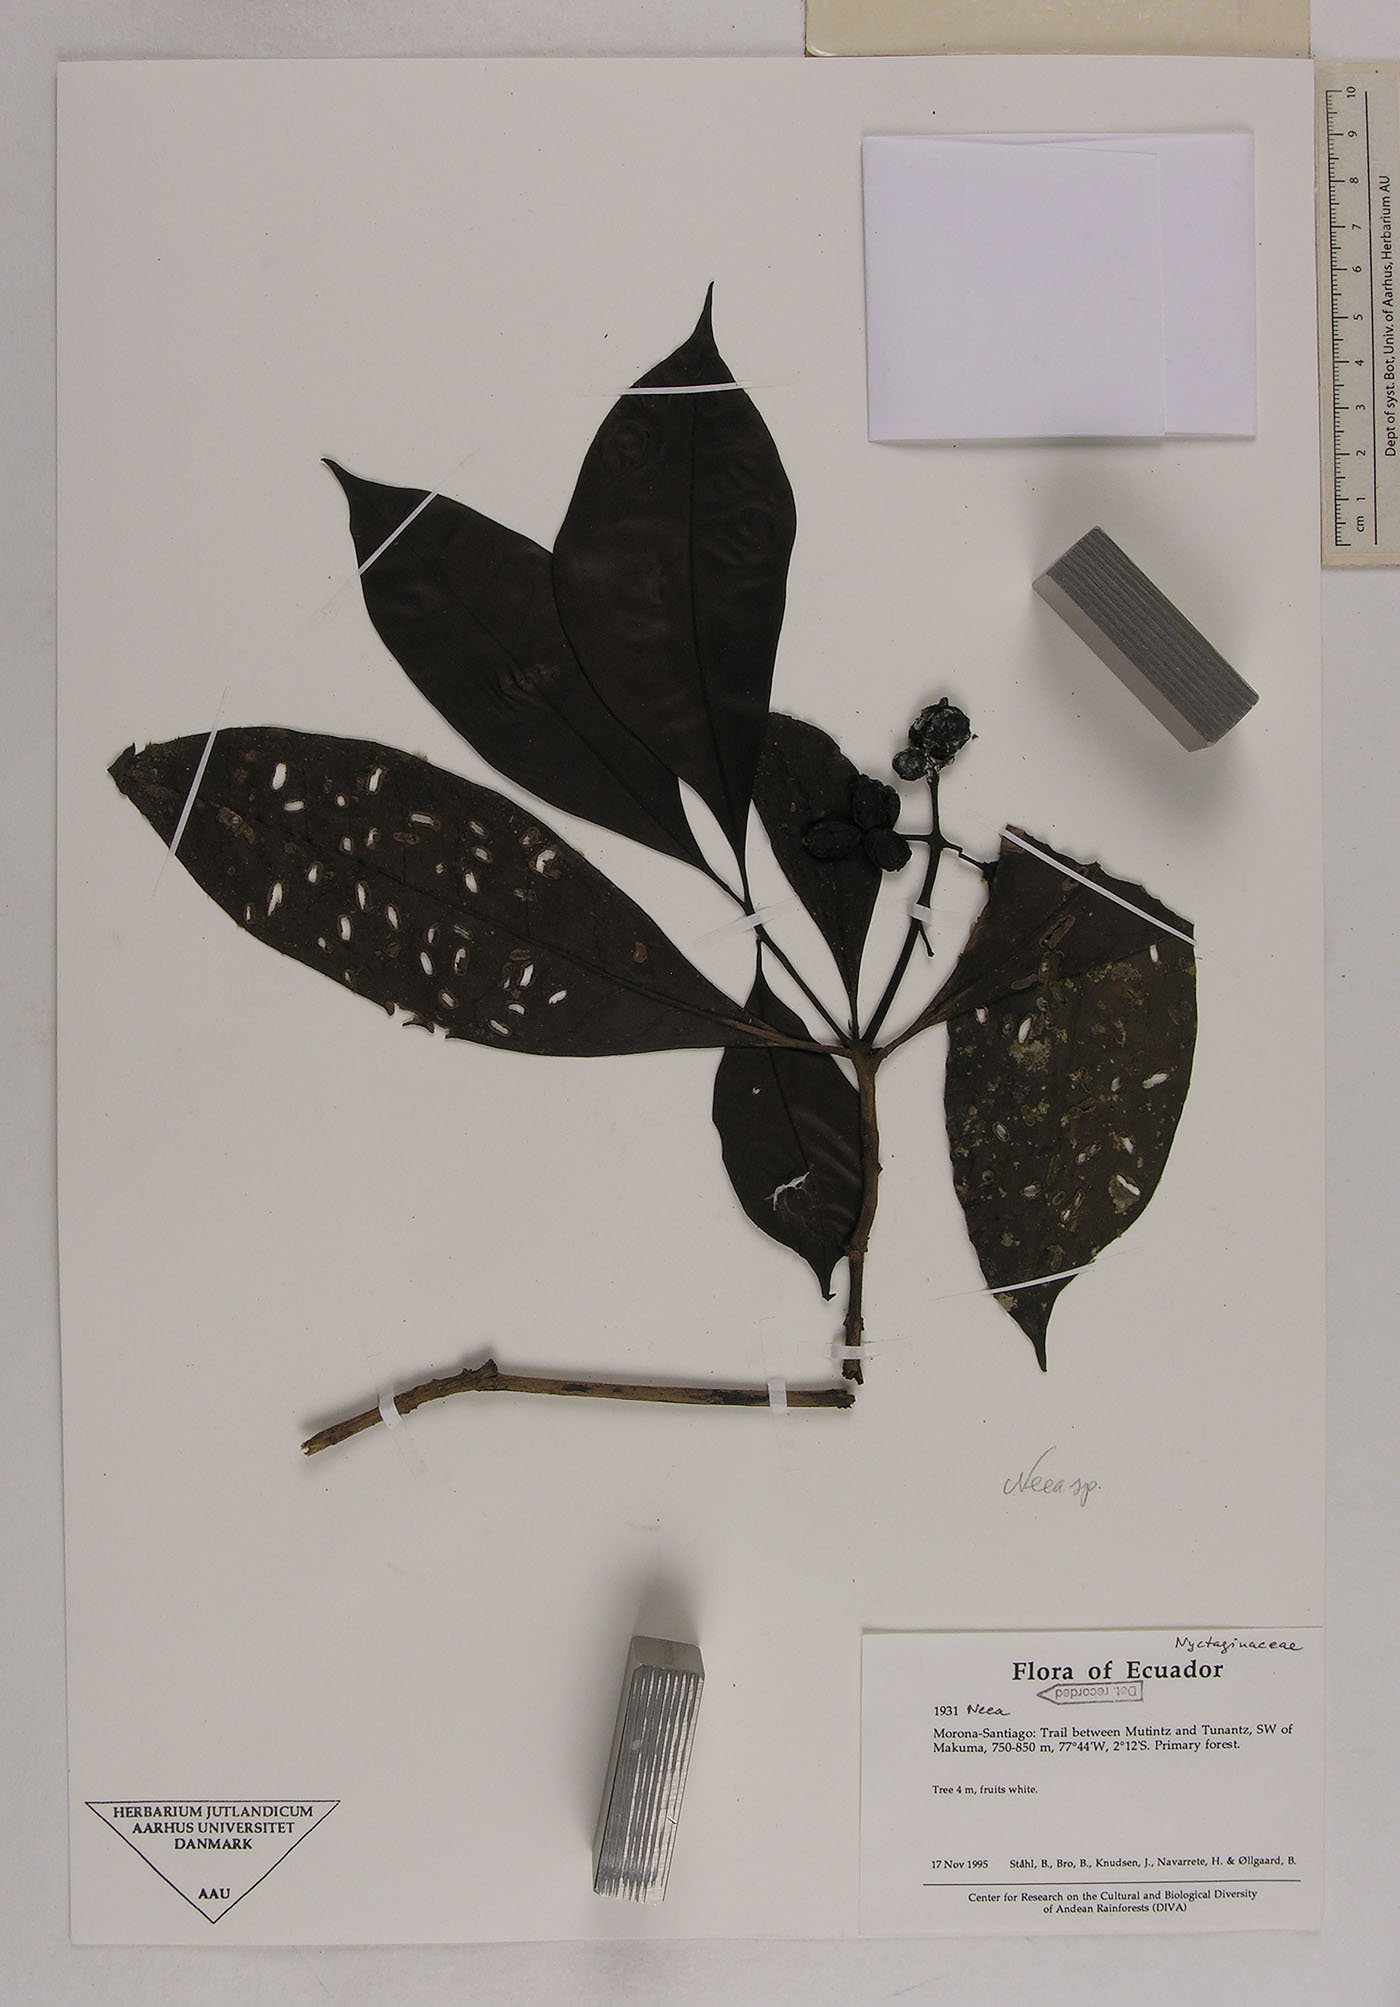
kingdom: Plantae
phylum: Tracheophyta
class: Magnoliopsida
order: Caryophyllales
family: Nyctaginaceae
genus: Neea
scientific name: Neea
